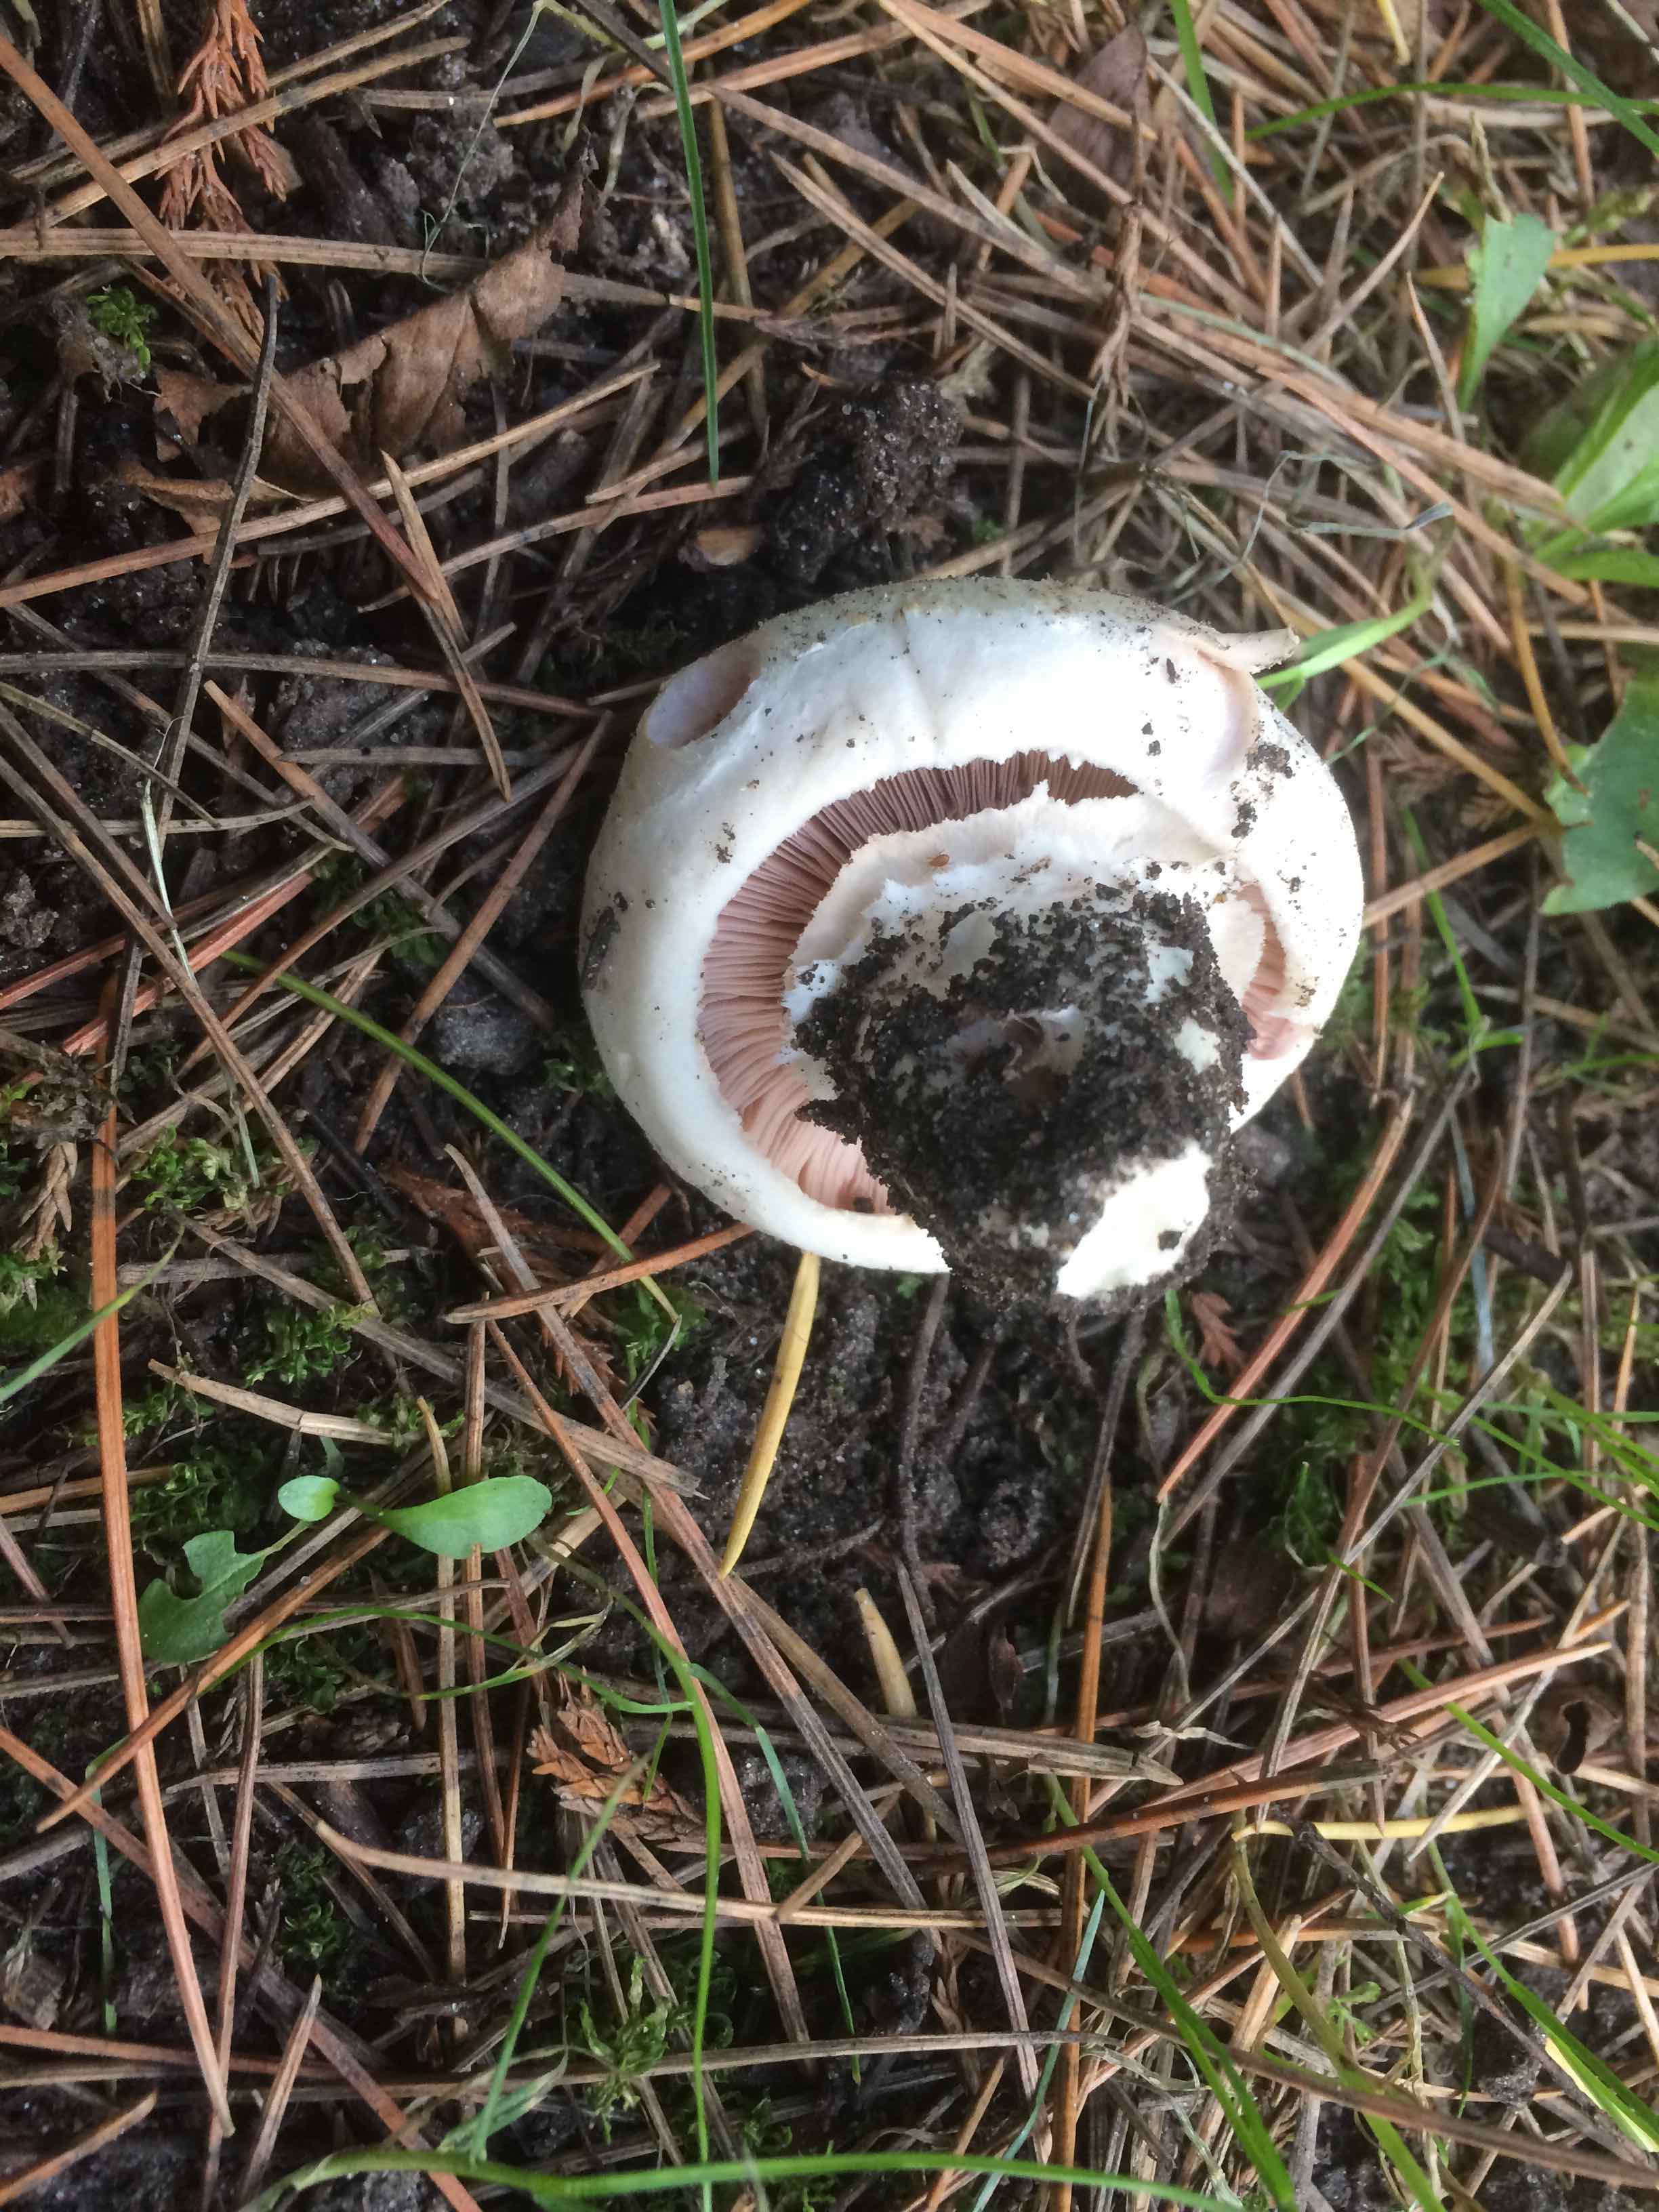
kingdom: Fungi
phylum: Basidiomycota
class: Agaricomycetes
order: Agaricales
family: Agaricaceae
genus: Agaricus
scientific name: Agaricus bitorquis
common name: vej-champignon
